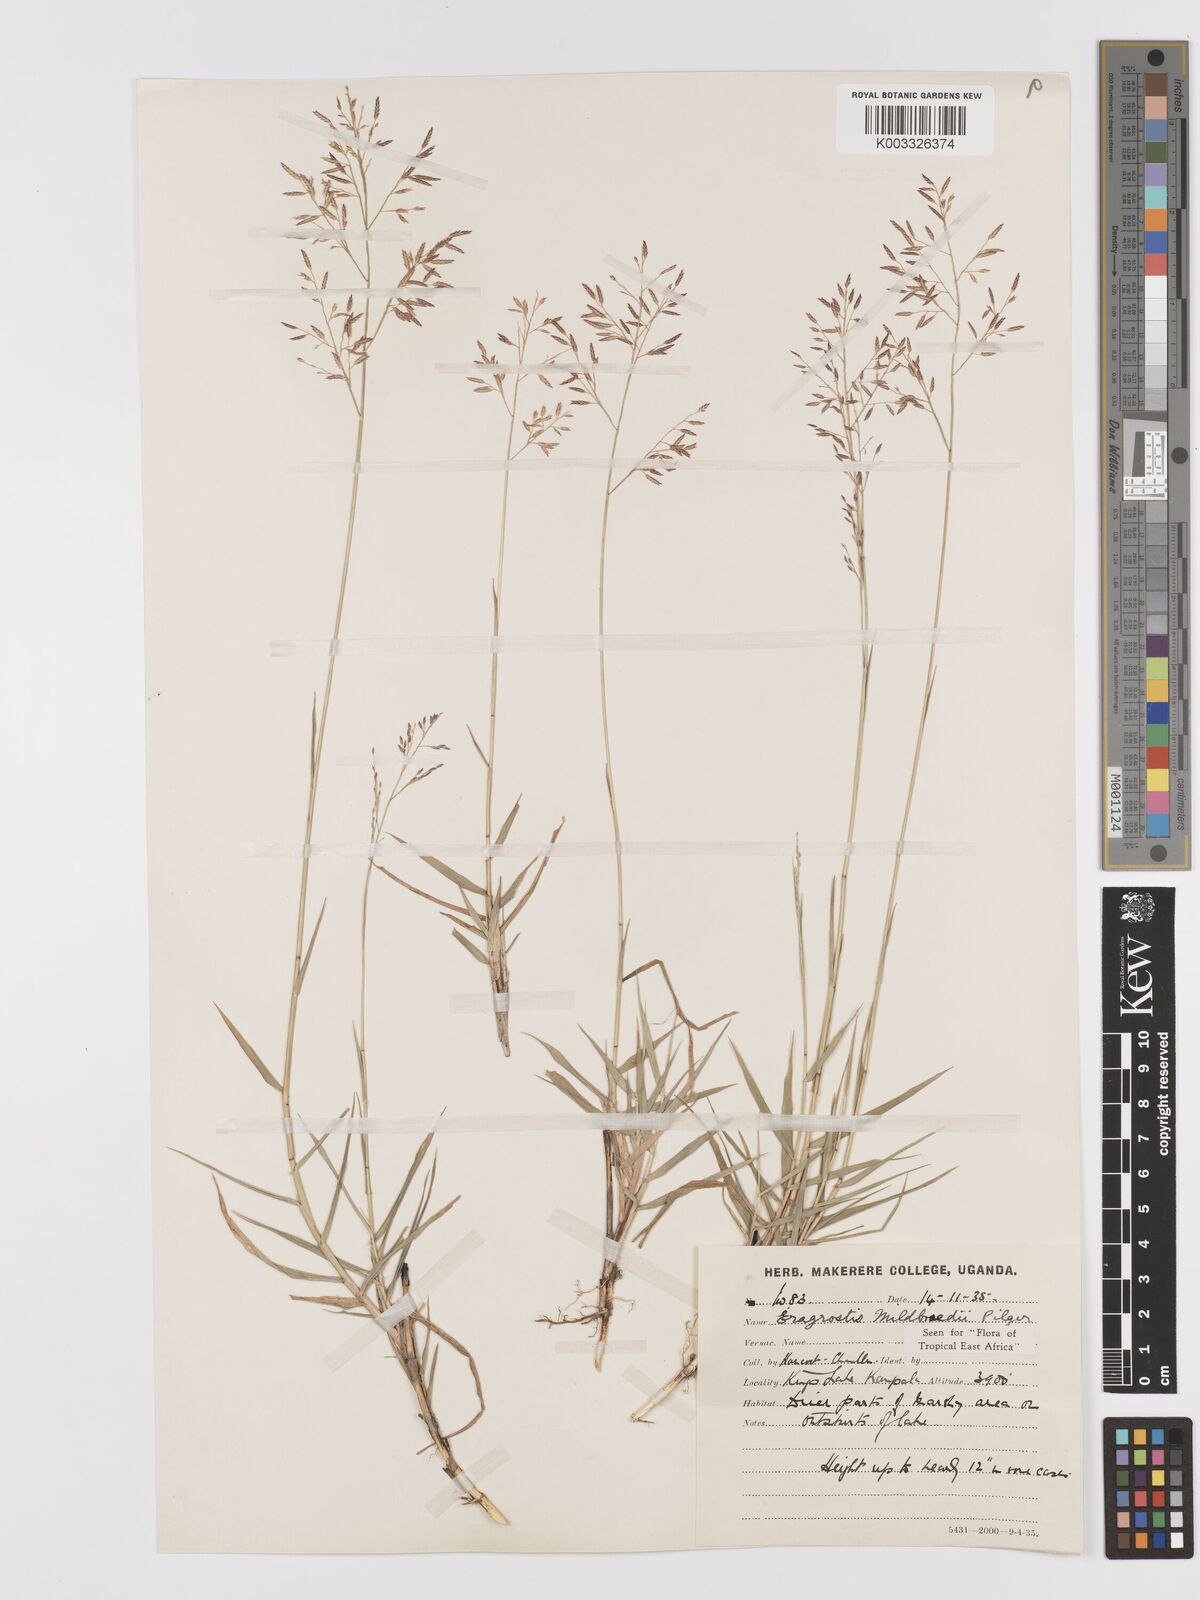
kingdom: Plantae
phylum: Tracheophyta
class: Liliopsida
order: Poales
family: Poaceae
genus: Eragrostis
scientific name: Eragrostis mildbraedii
